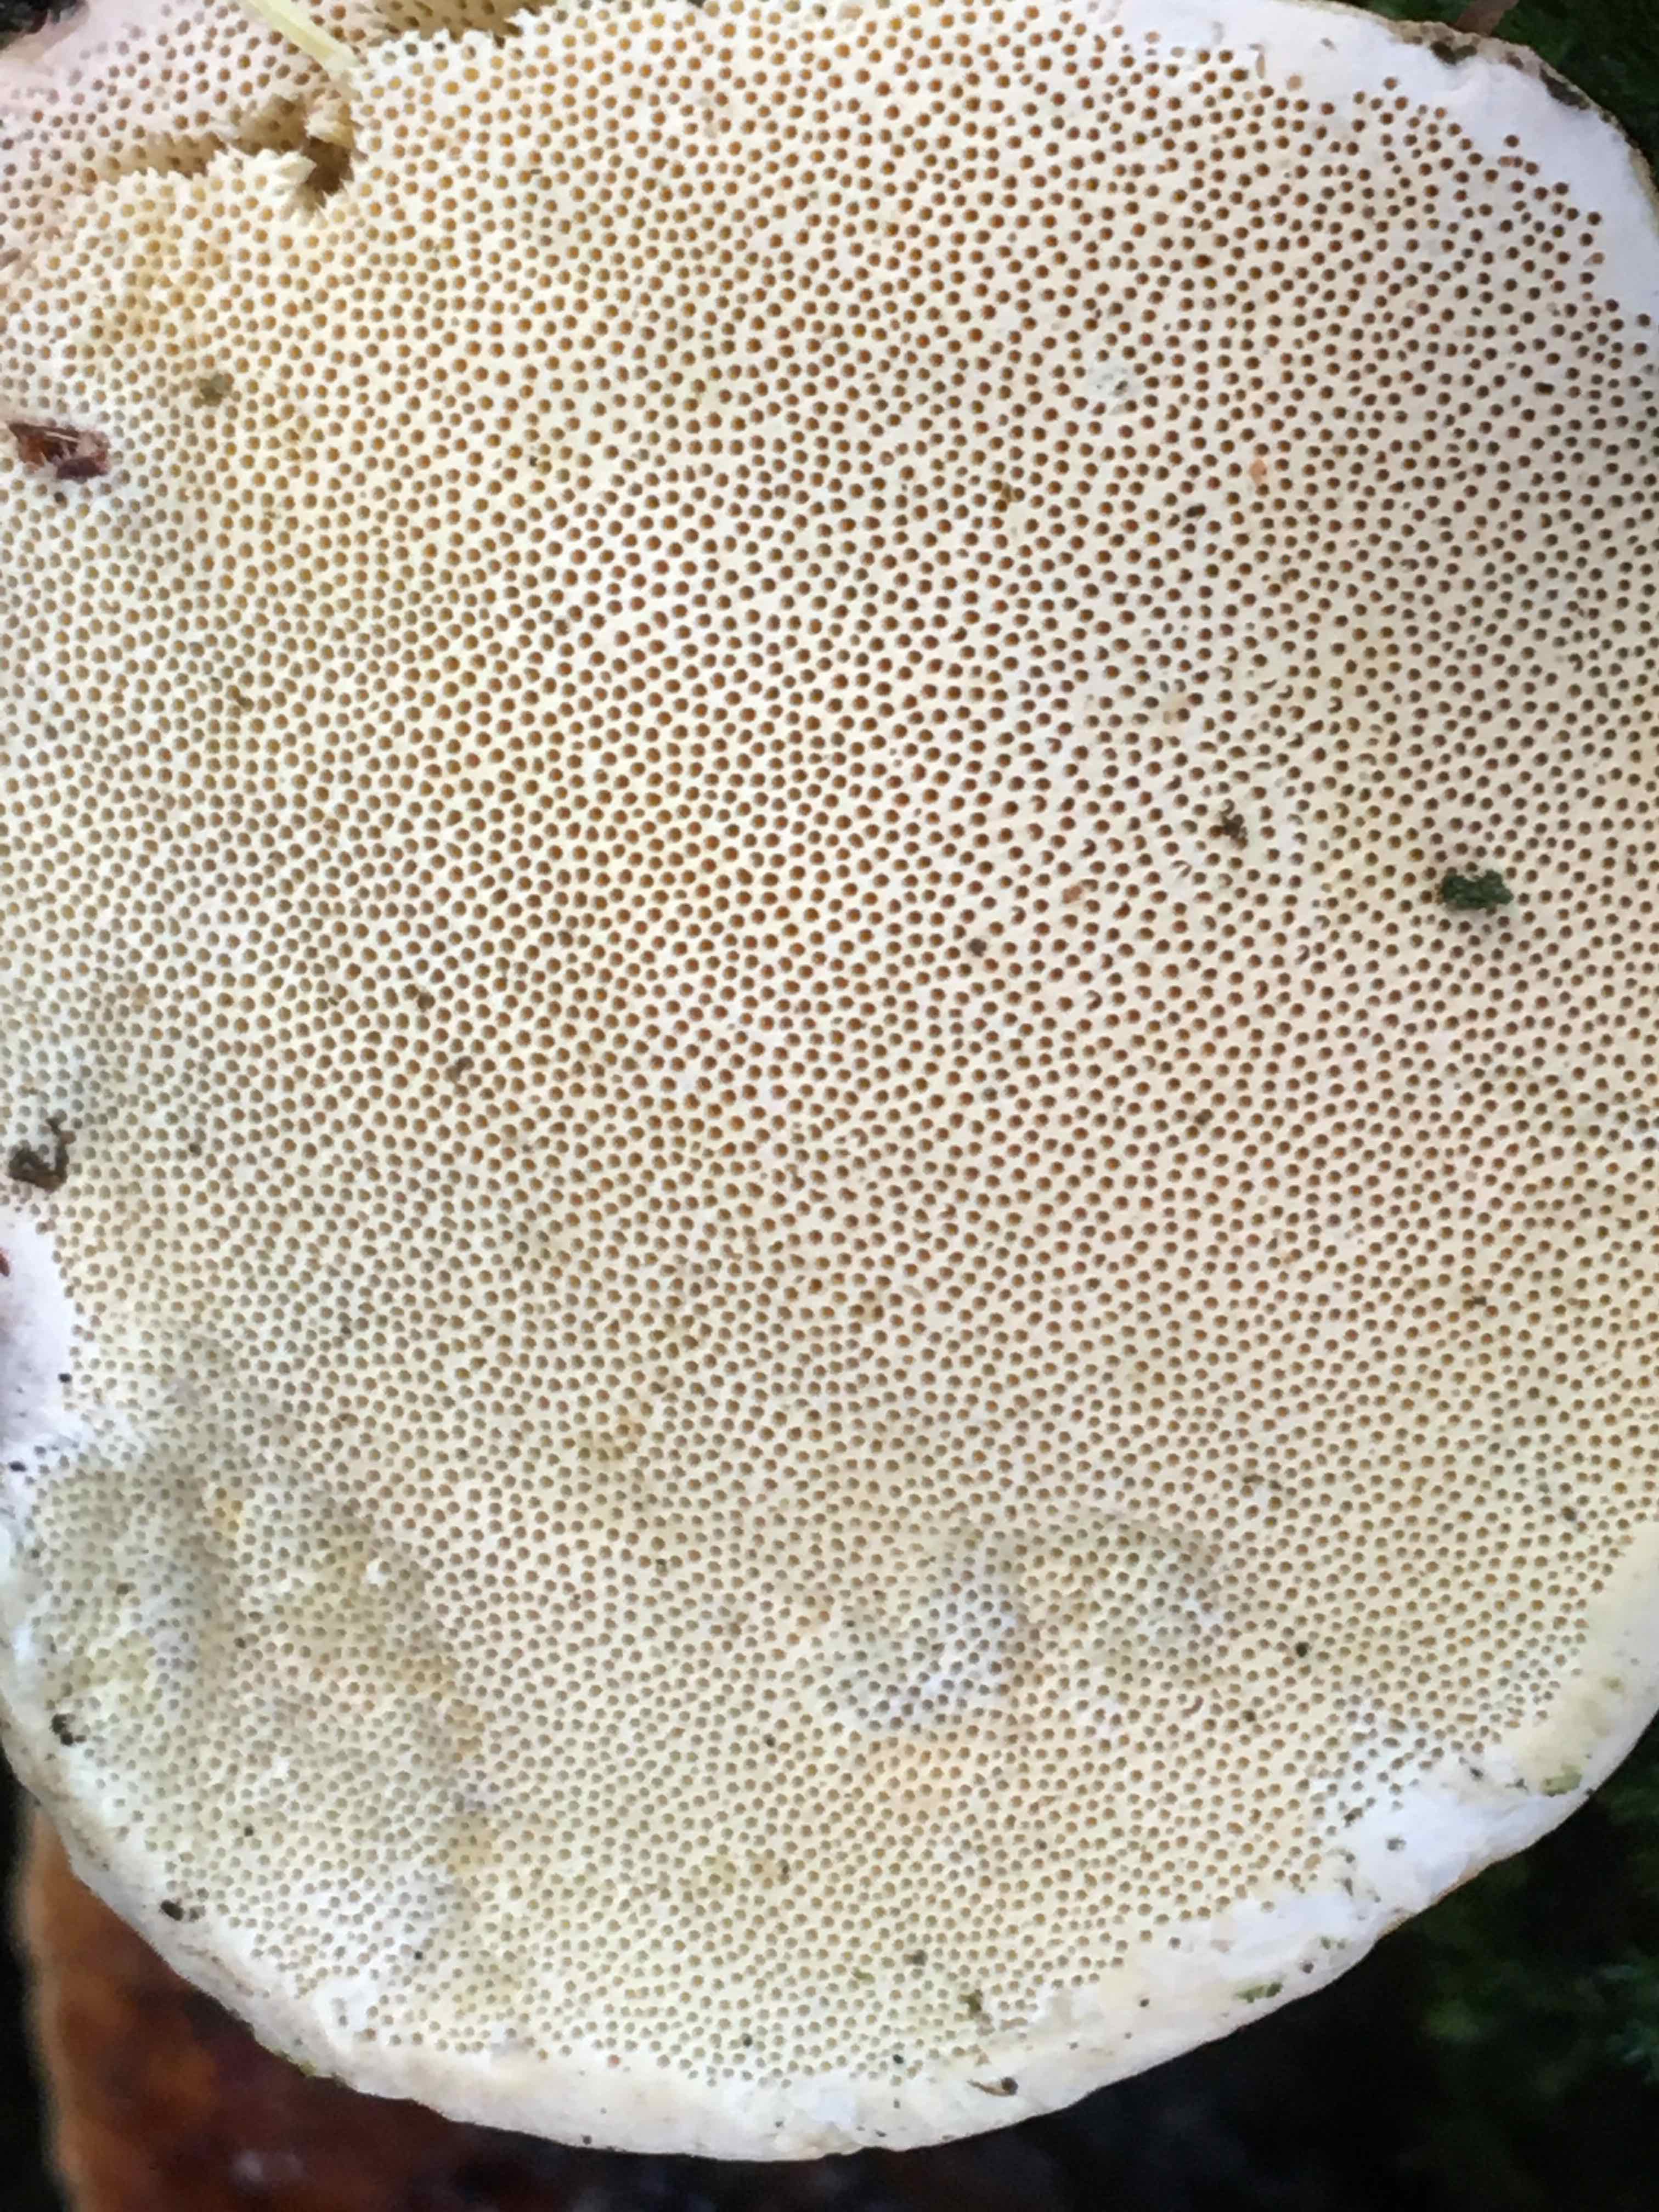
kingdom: Fungi
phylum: Basidiomycota
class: Agaricomycetes
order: Polyporales
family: Fomitopsidaceae
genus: Fomitopsis
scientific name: Fomitopsis pinicola
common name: randbæltet hovporesvamp
